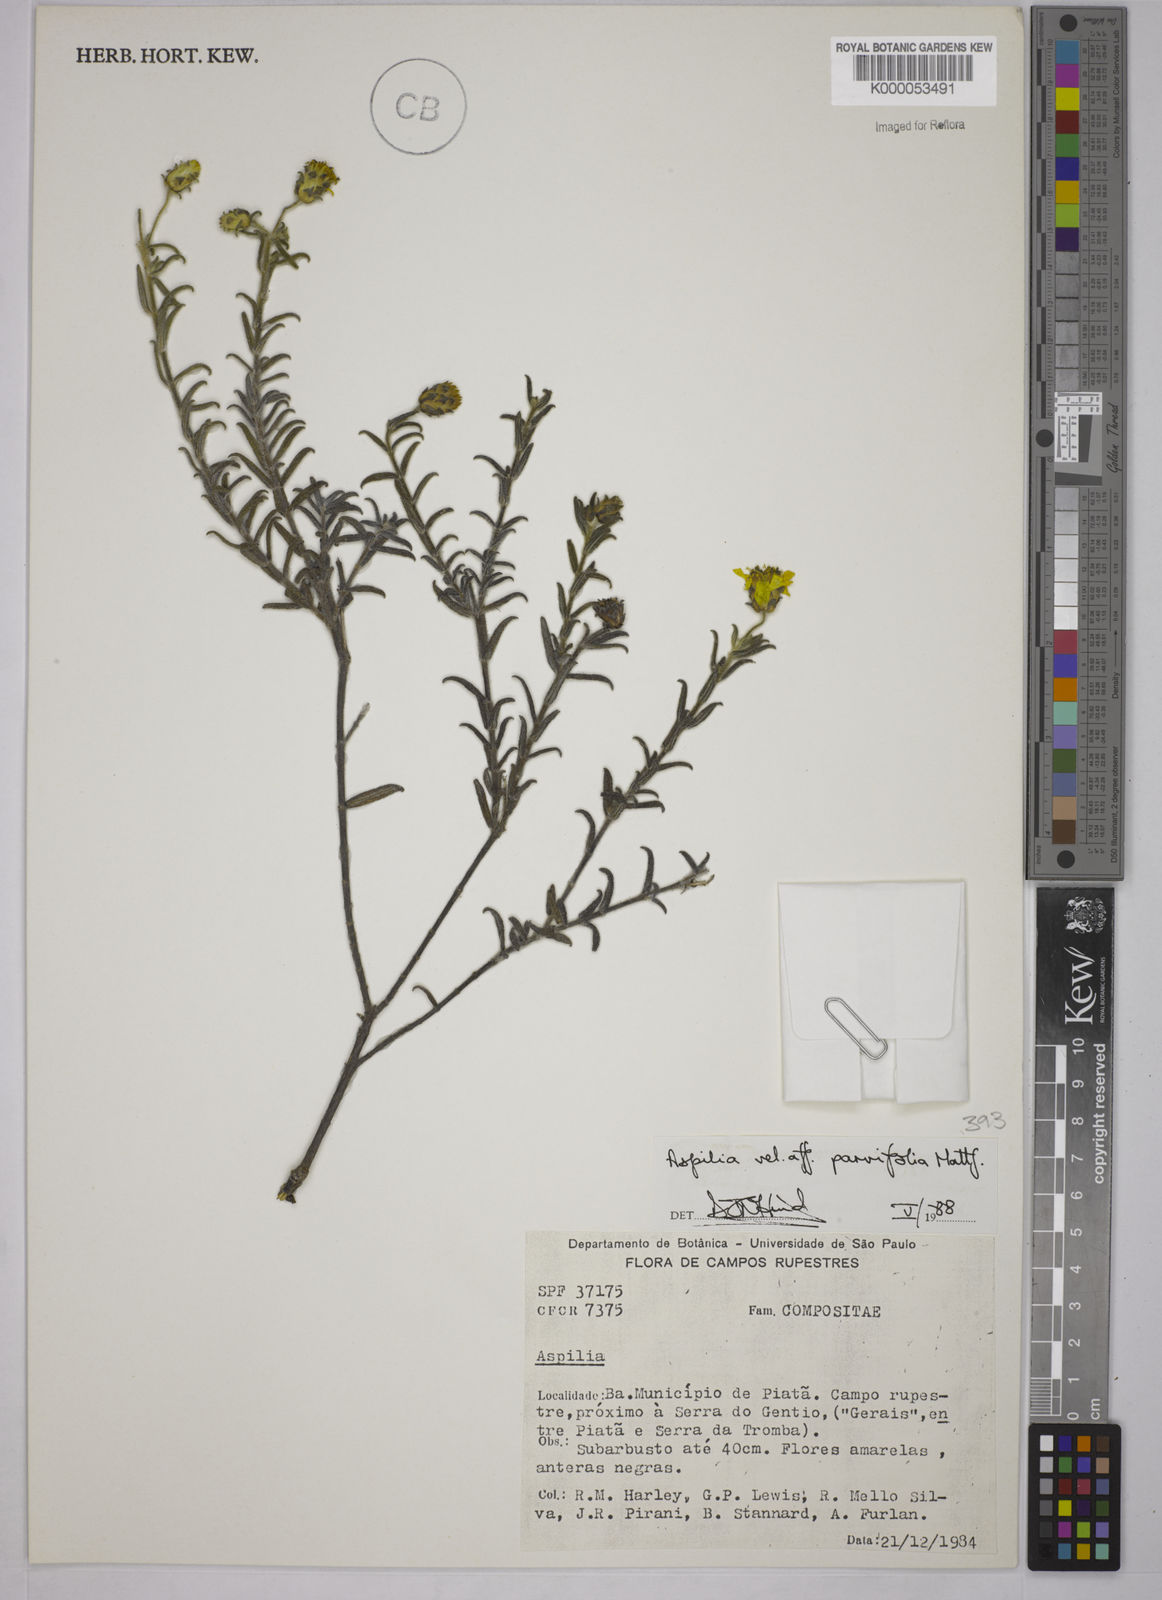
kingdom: Plantae
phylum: Tracheophyta
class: Magnoliopsida
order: Asterales
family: Asteraceae
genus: Aspilia
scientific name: Aspilia foliosa
